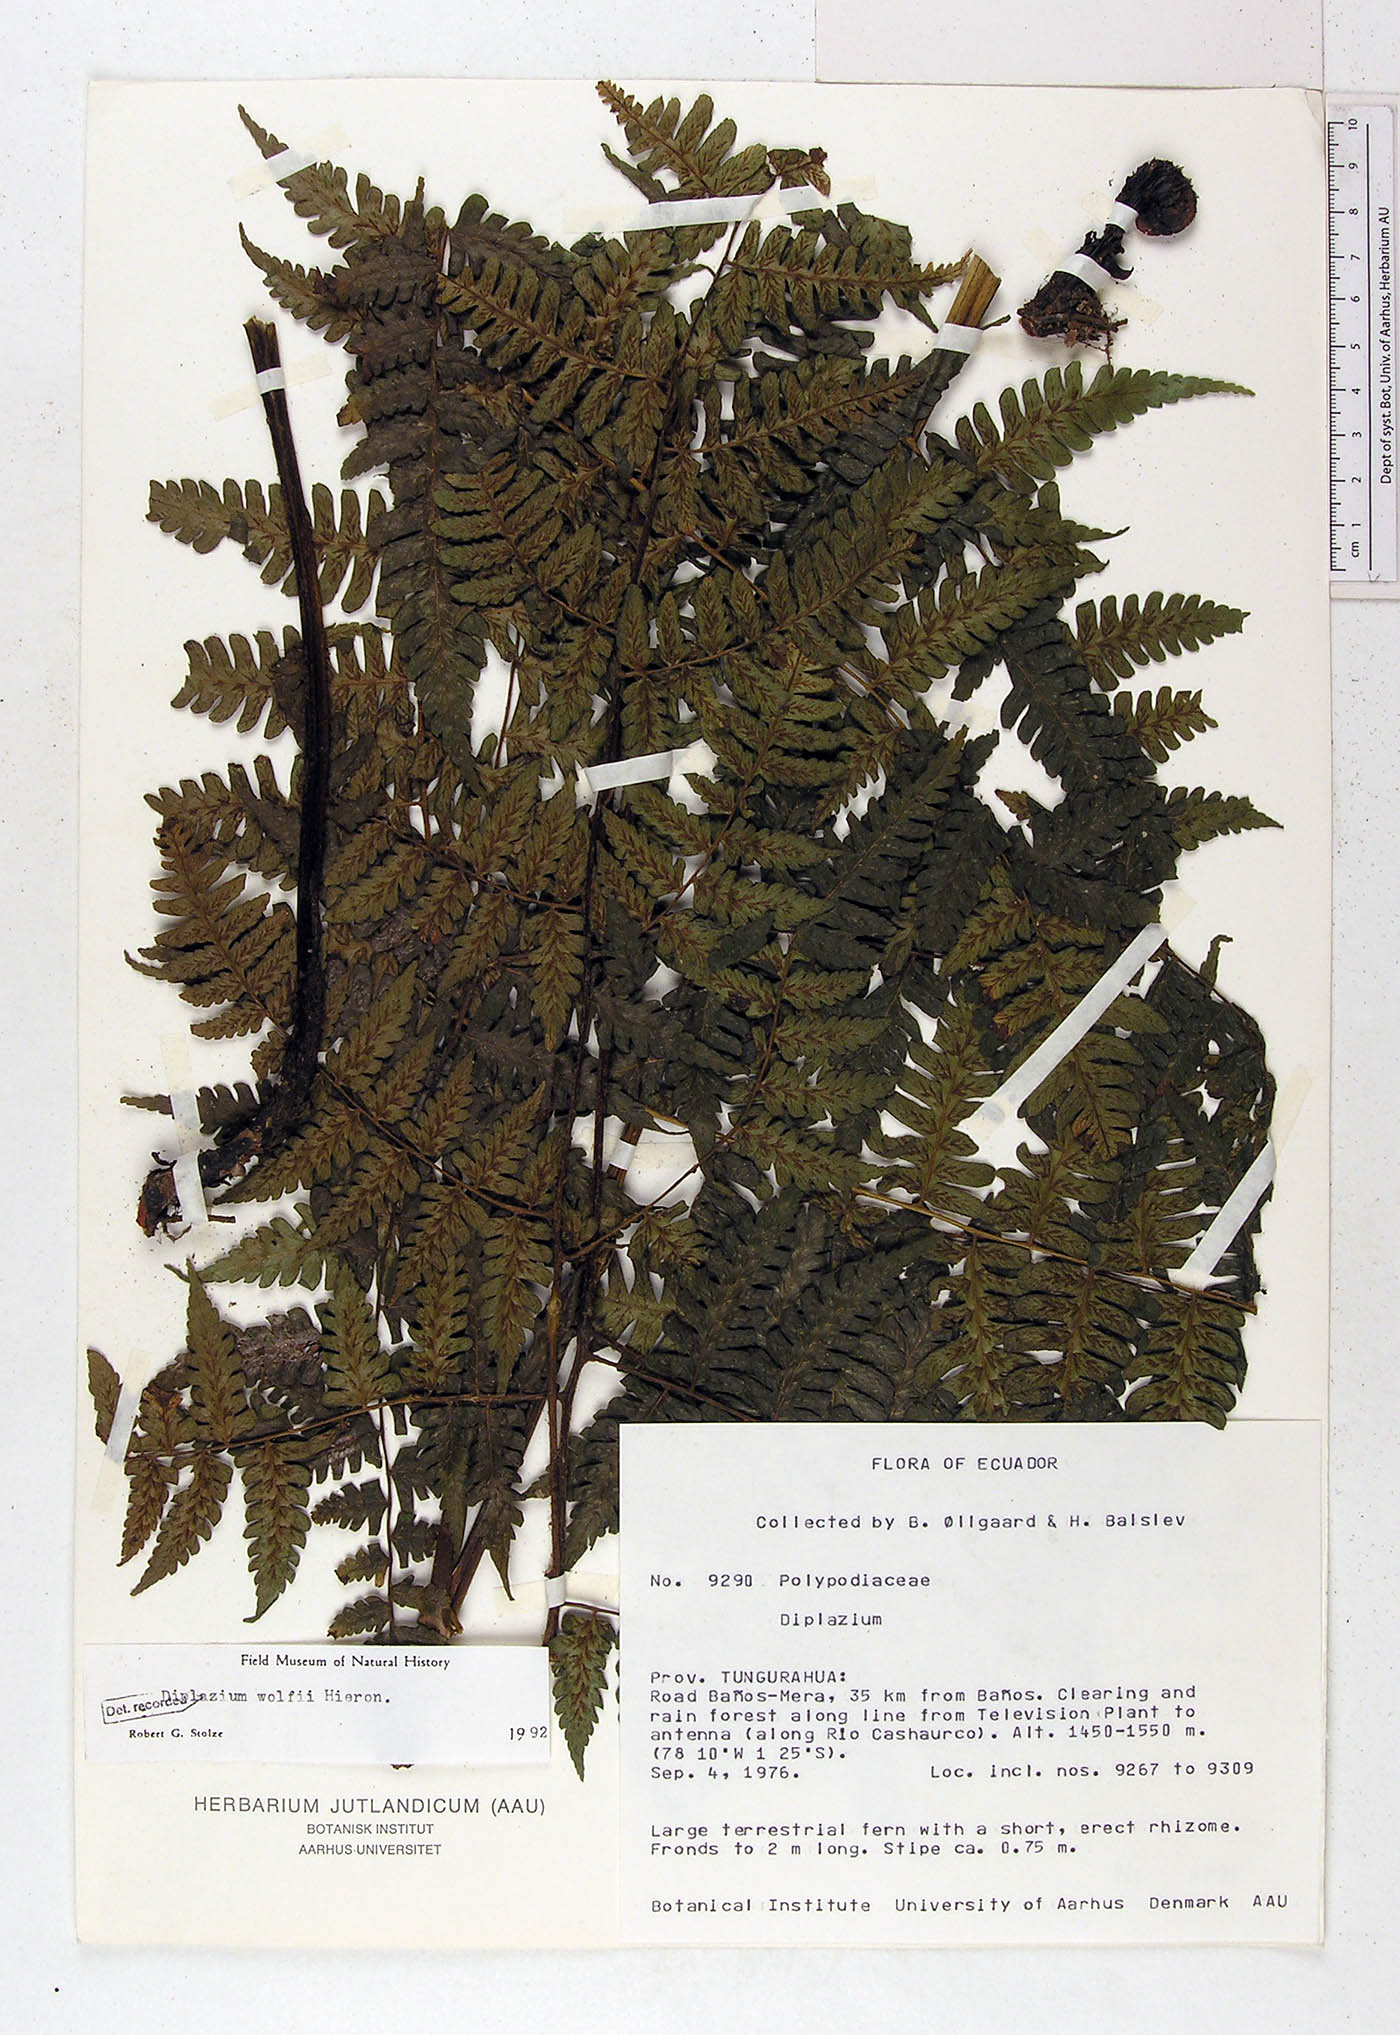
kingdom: Plantae
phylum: Tracheophyta
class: Polypodiopsida
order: Polypodiales
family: Athyriaceae
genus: Diplazium
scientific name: Diplazium wolfii
